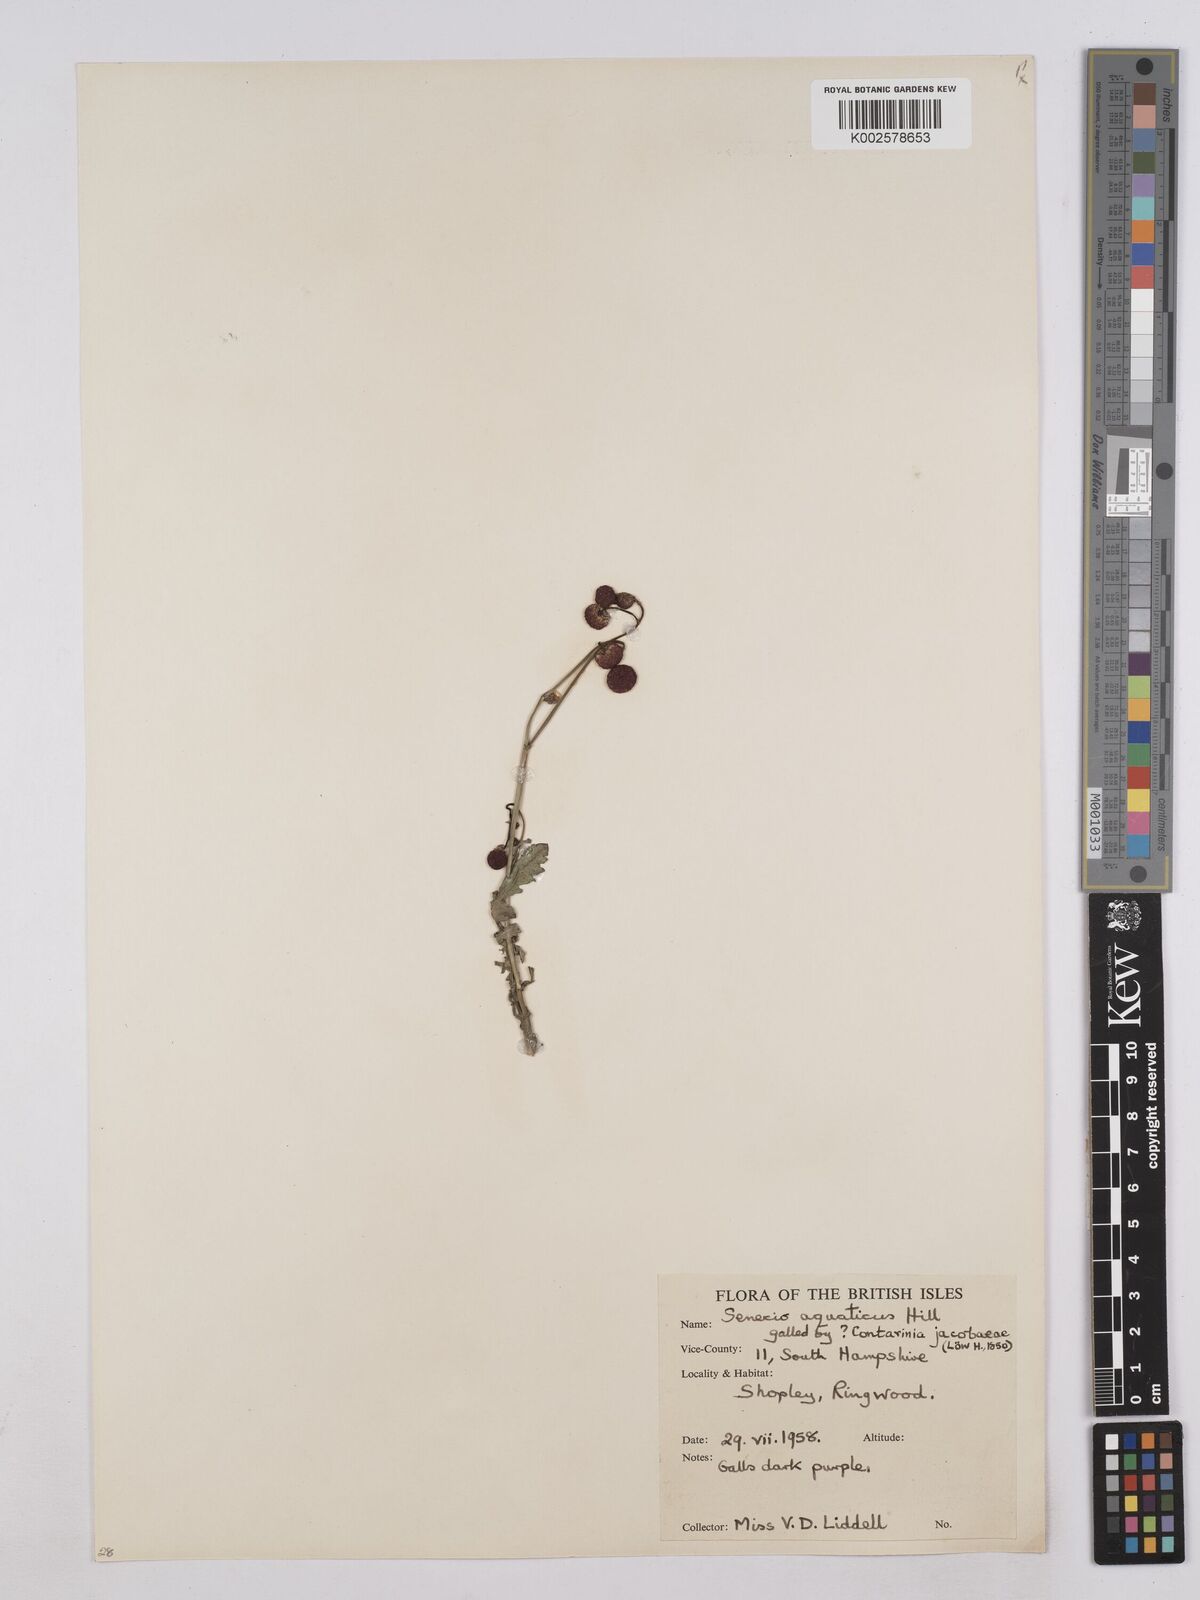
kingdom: Plantae
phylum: Tracheophyta
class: Magnoliopsida
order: Asterales
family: Asteraceae
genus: Jacobaea
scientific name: Jacobaea aquatica
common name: Water ragwort
